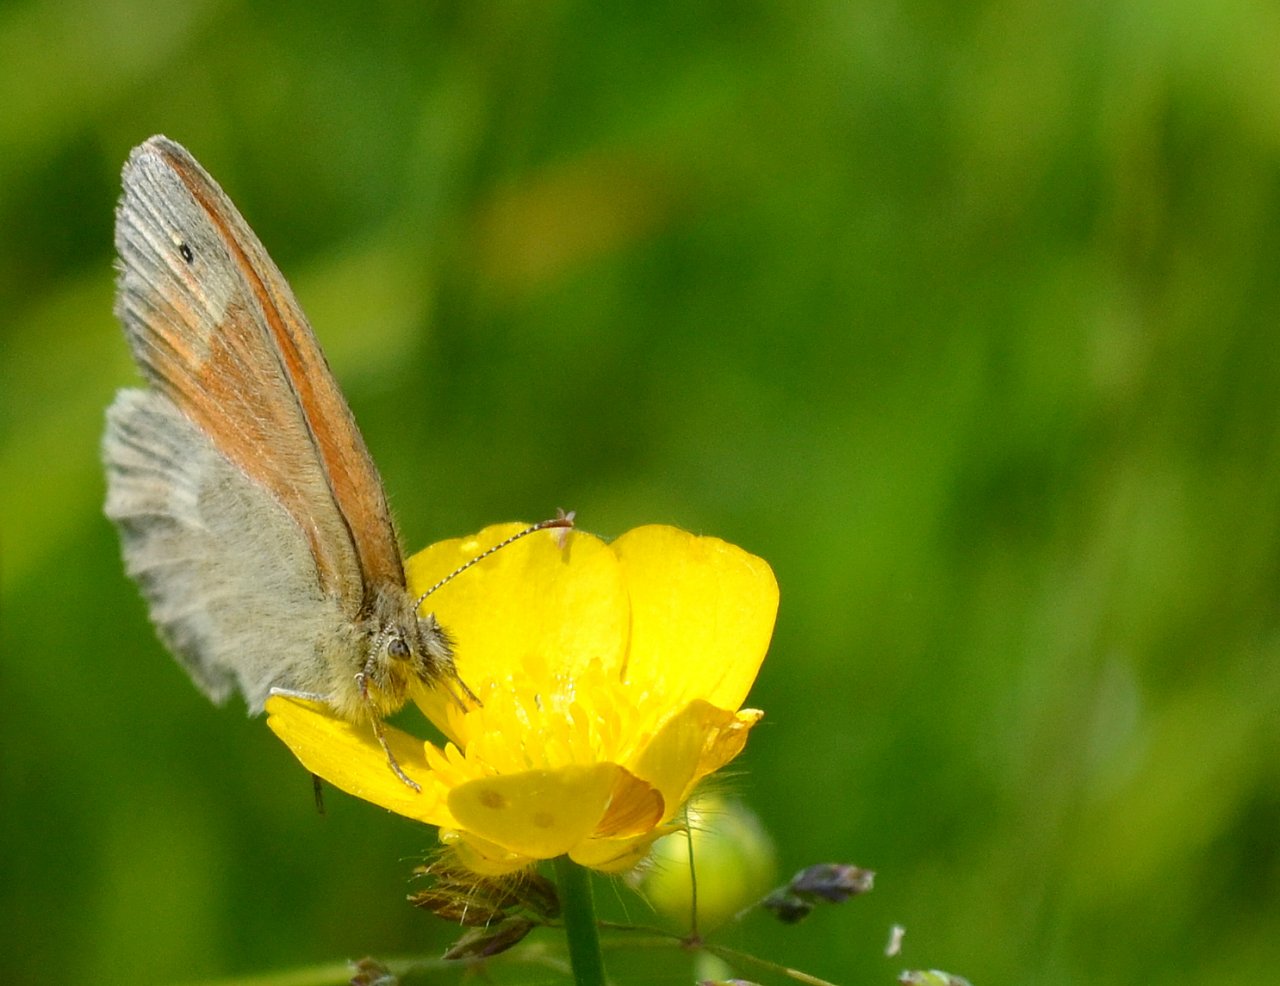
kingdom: Animalia
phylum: Arthropoda
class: Insecta
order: Lepidoptera
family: Nymphalidae
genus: Coenonympha
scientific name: Coenonympha tullia
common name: Large Heath
